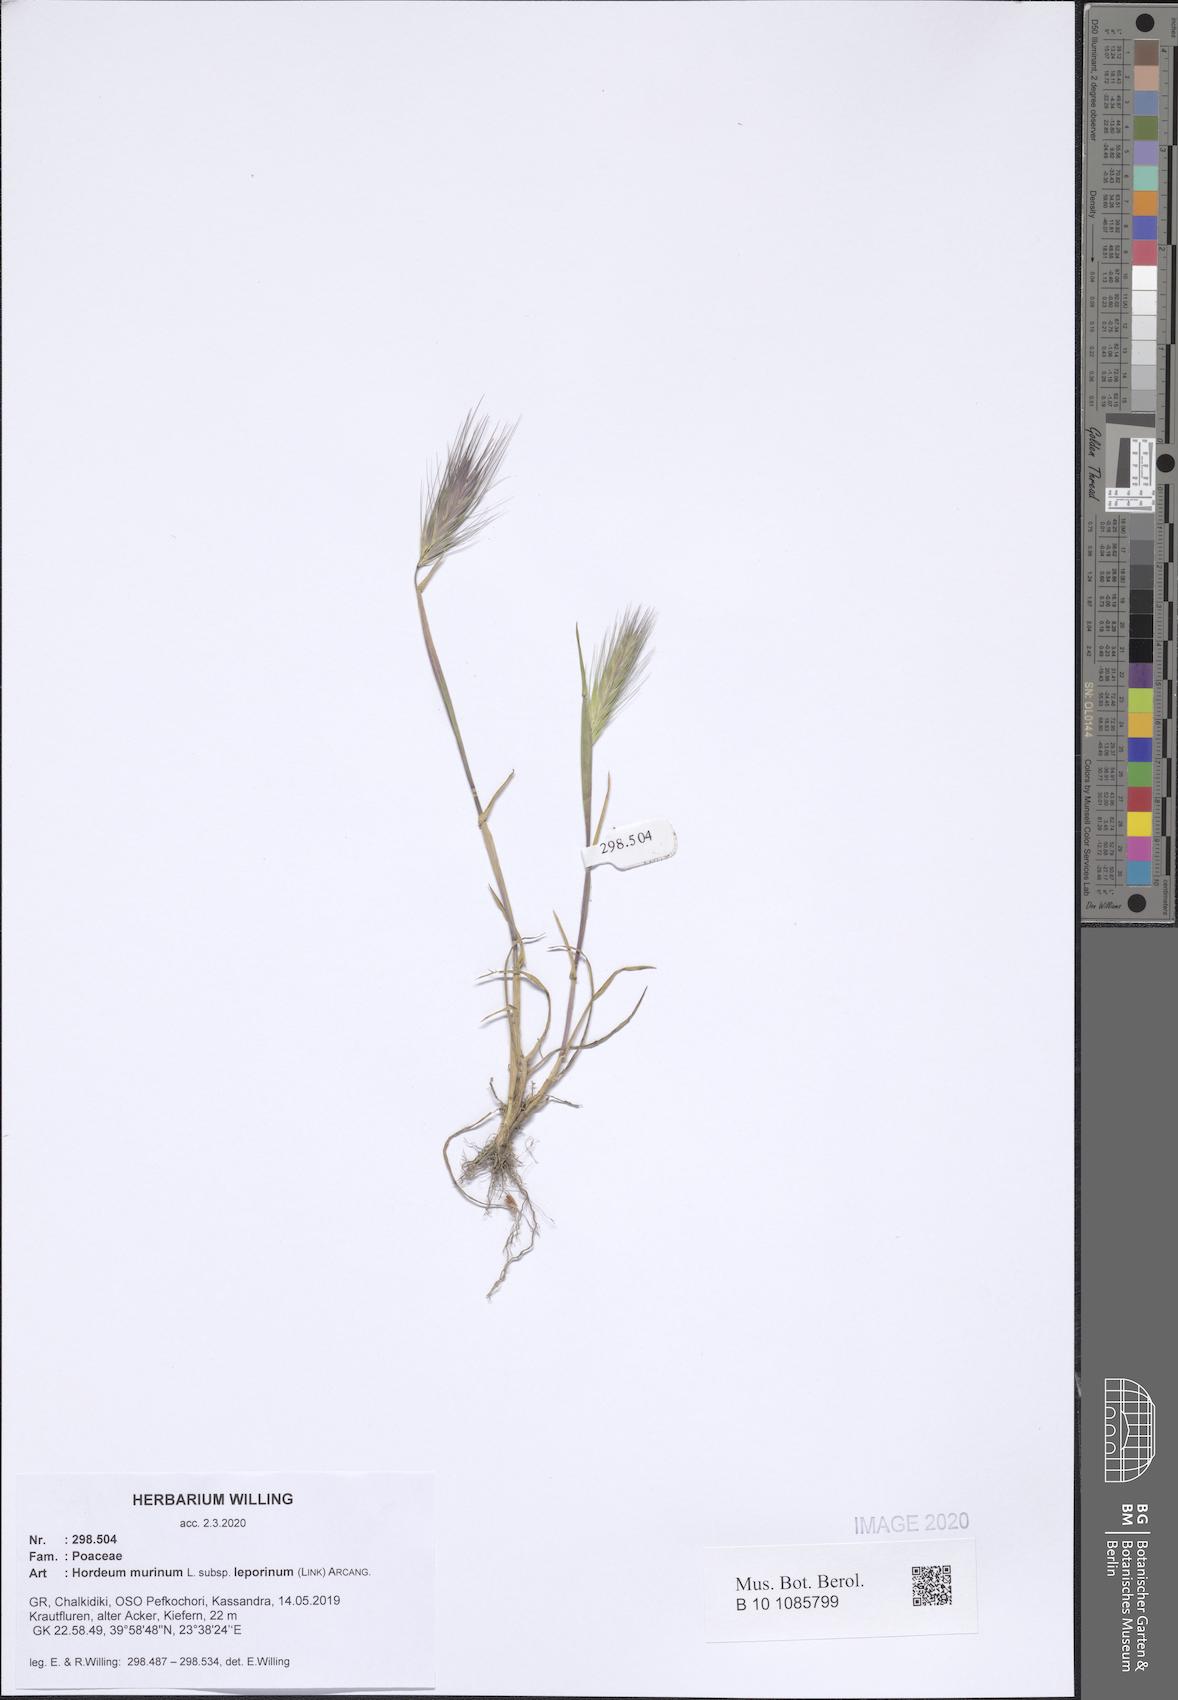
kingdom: Plantae
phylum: Tracheophyta
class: Liliopsida
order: Poales
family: Poaceae
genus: Hordeum
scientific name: Hordeum murinum
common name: Wall barley
